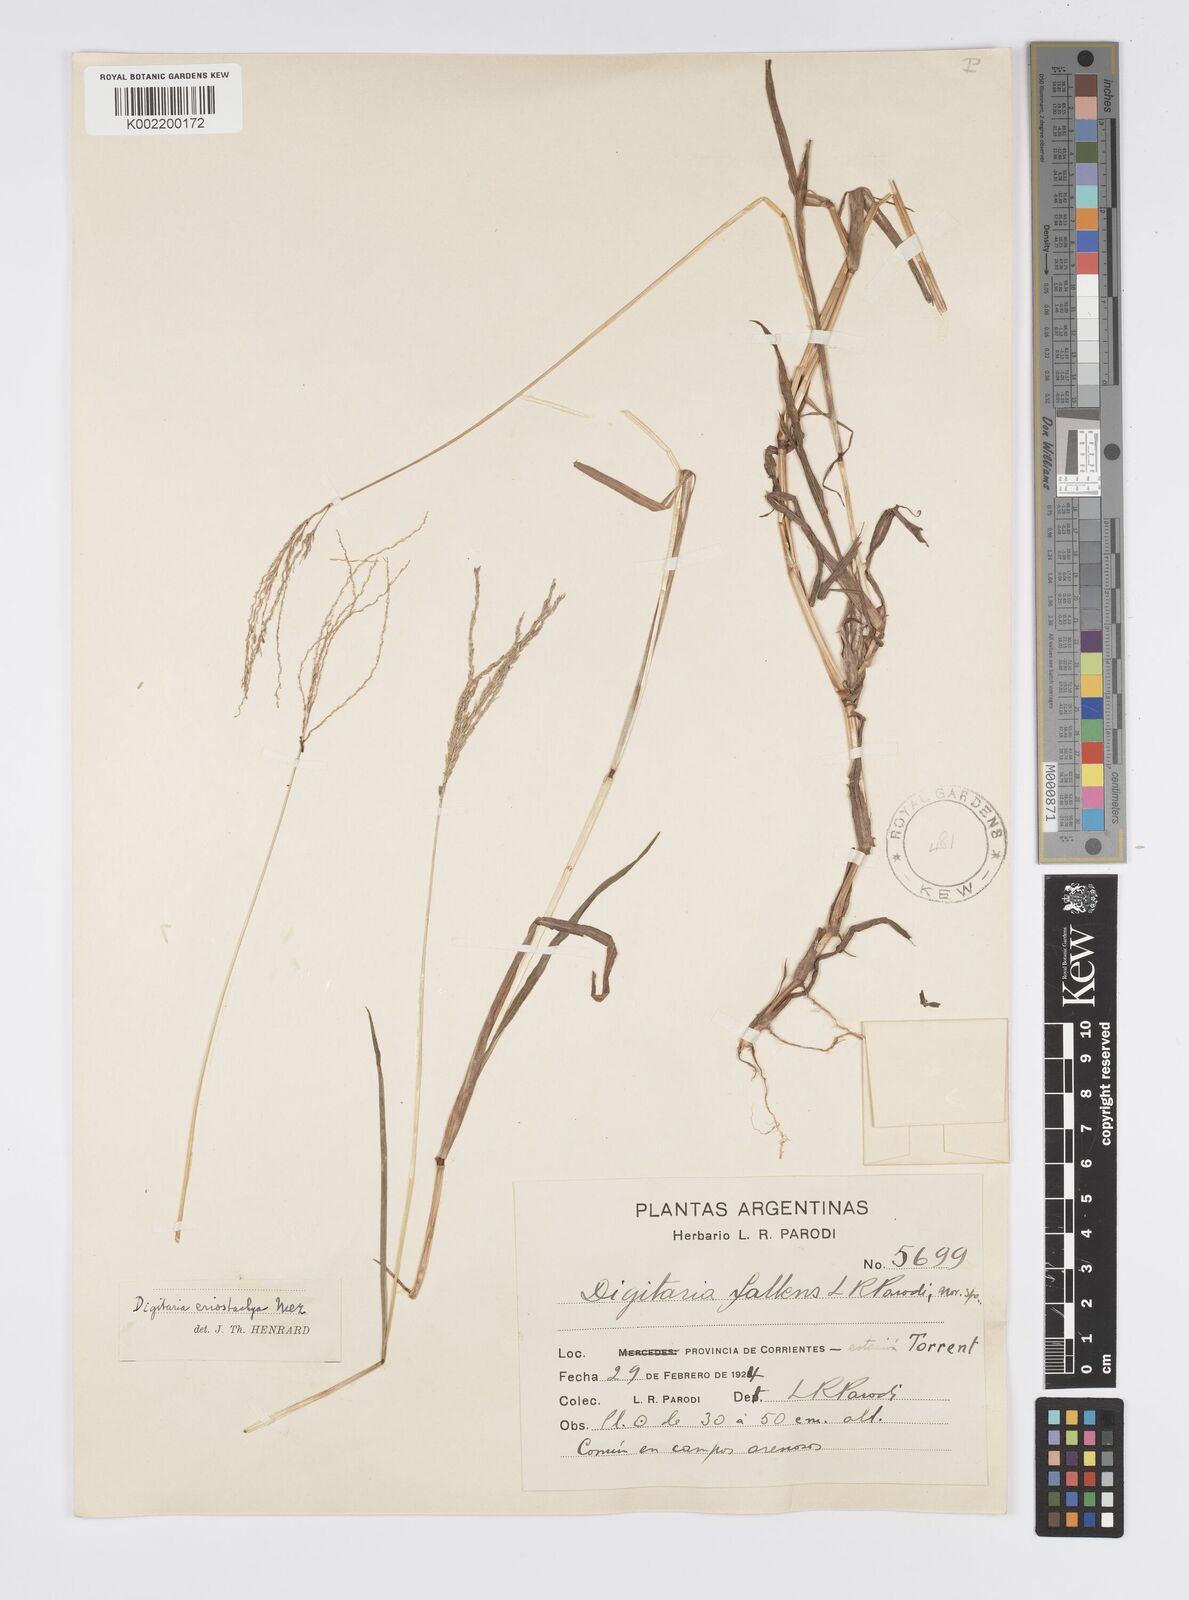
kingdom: Plantae
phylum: Tracheophyta
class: Liliopsida
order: Poales
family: Poaceae
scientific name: Poaceae
